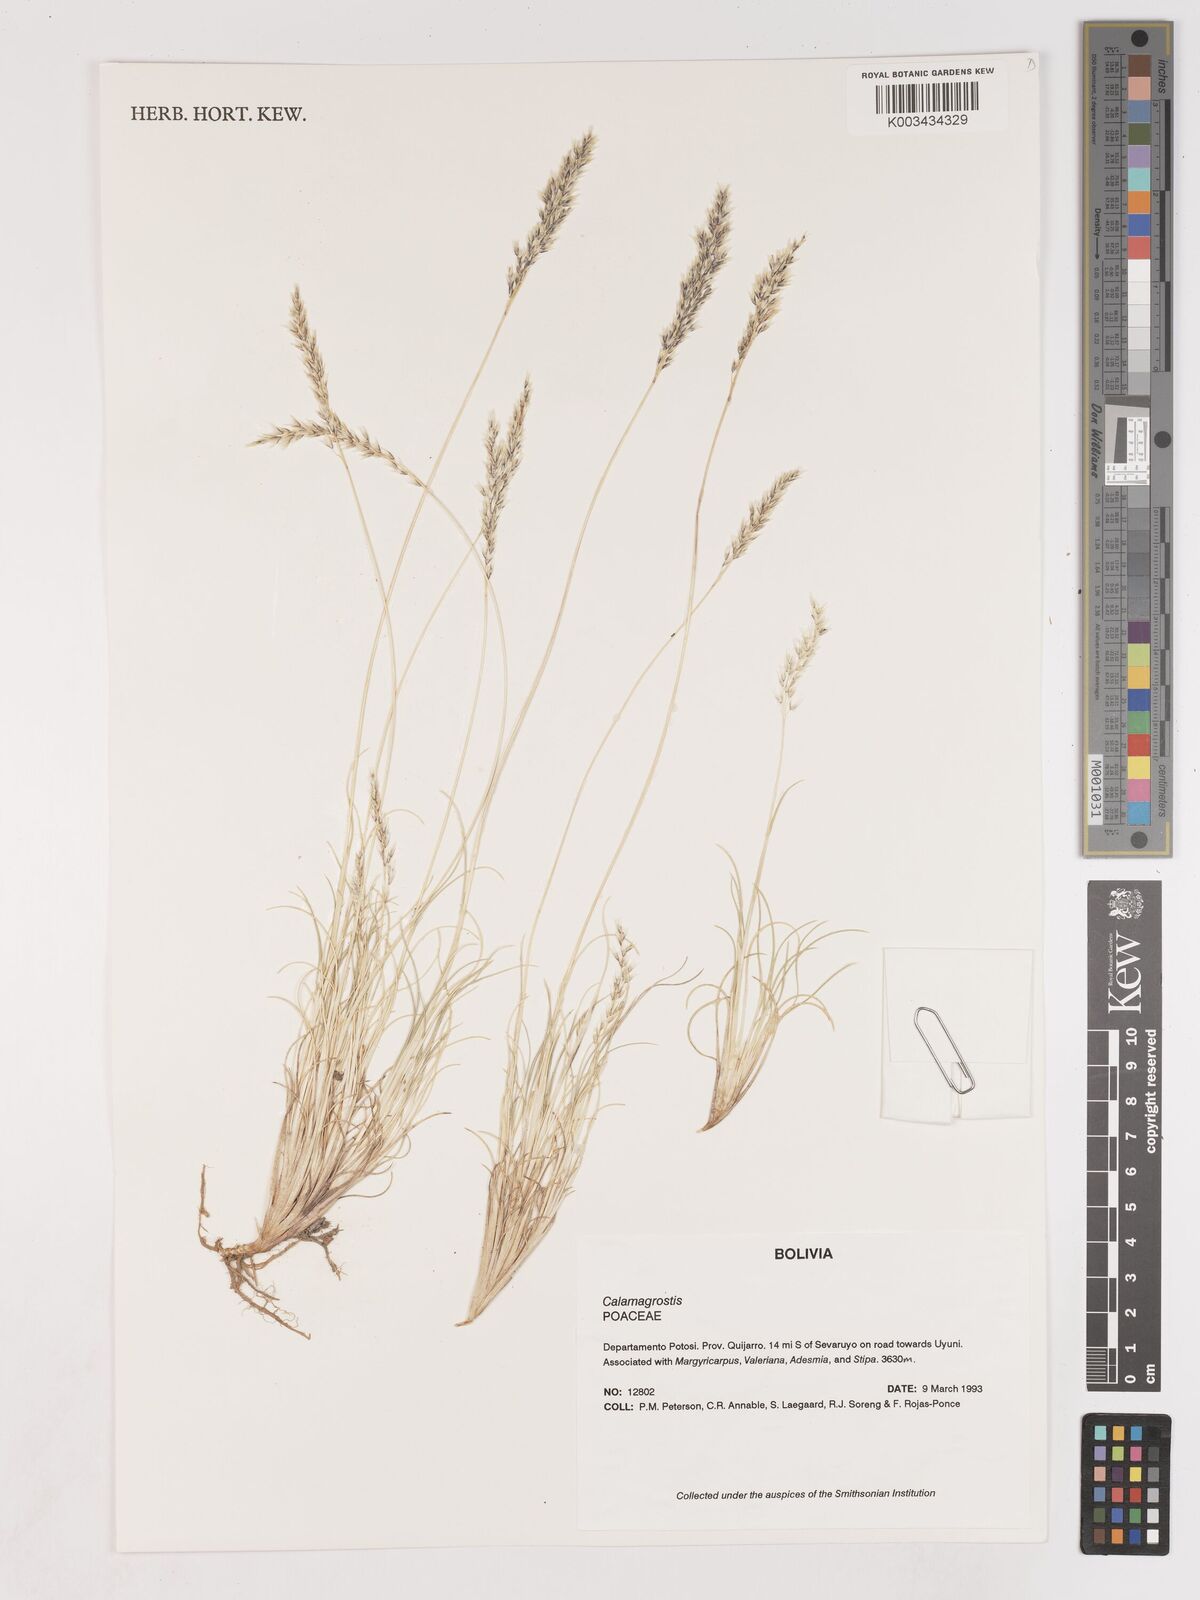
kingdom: Plantae
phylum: Tracheophyta
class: Liliopsida
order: Poales
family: Poaceae
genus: Cinnagrostis
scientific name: Cinnagrostis brevifolia
